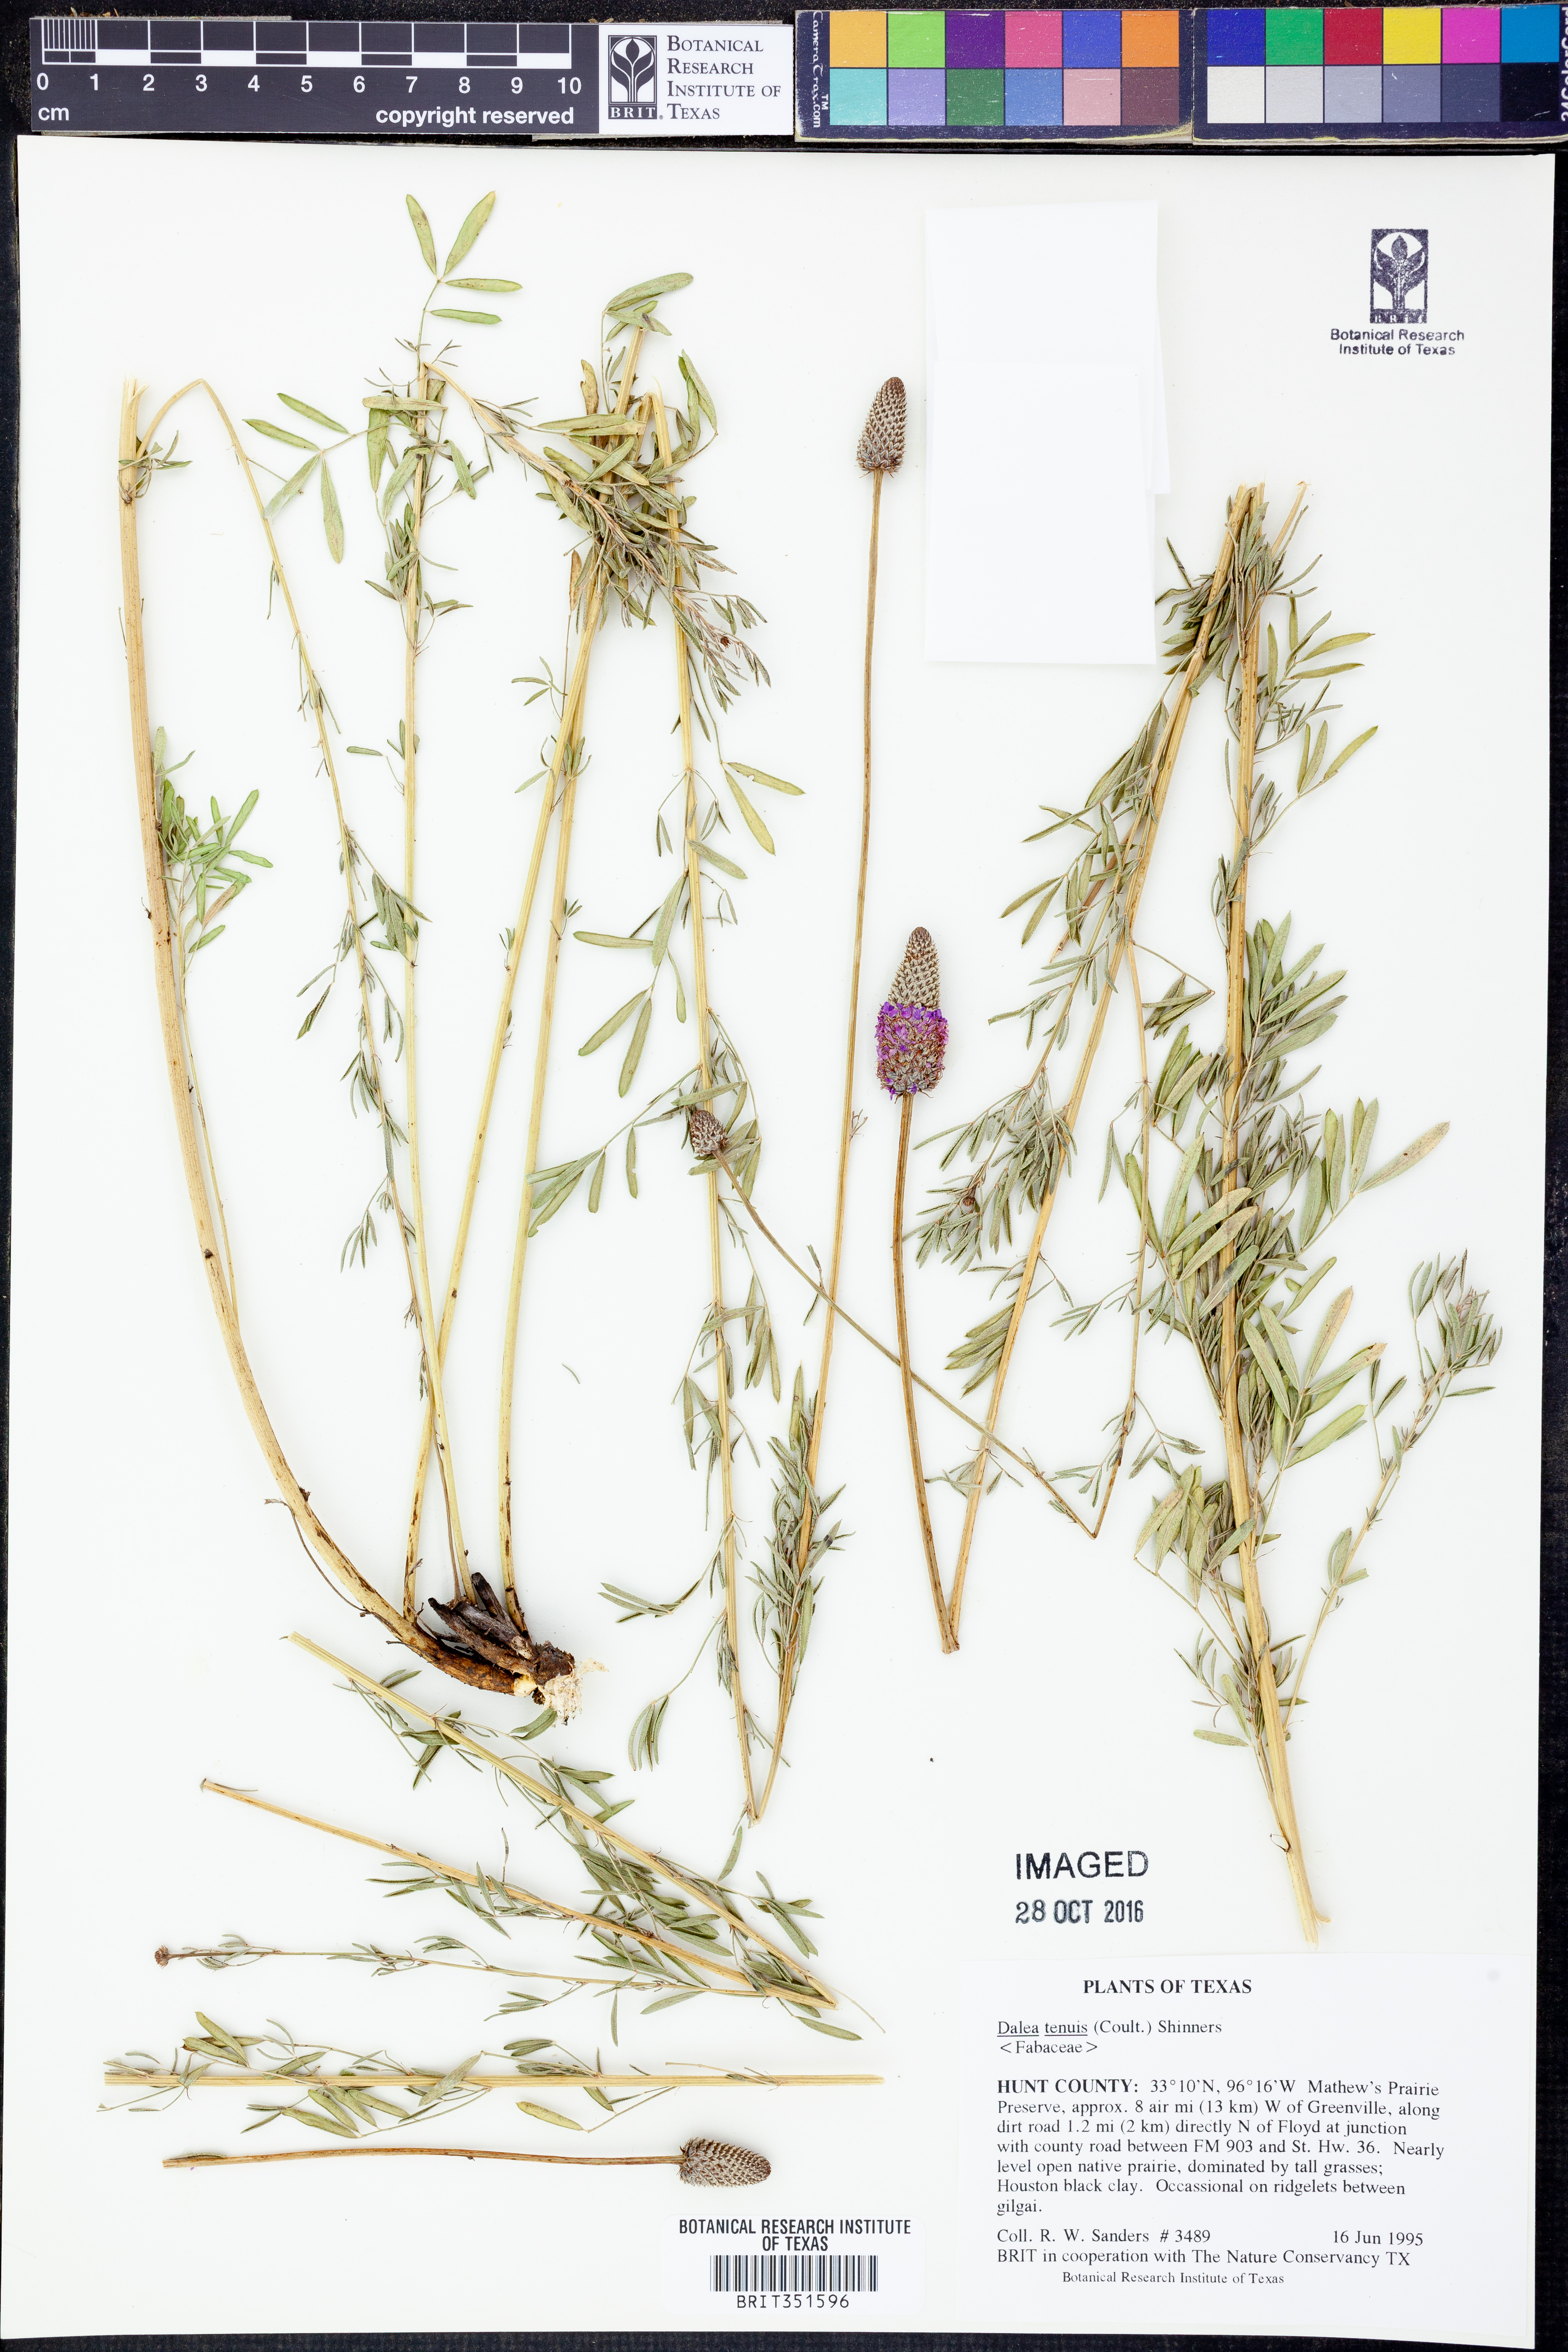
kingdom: Plantae
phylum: Tracheophyta
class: Magnoliopsida
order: Fabales
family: Fabaceae
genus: Dalea
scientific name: Dalea tenuis
